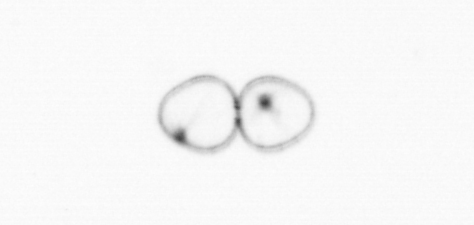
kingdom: Chromista
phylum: Myzozoa
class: Dinophyceae
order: Noctilucales
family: Noctilucaceae
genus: Noctiluca
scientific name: Noctiluca scintillans
